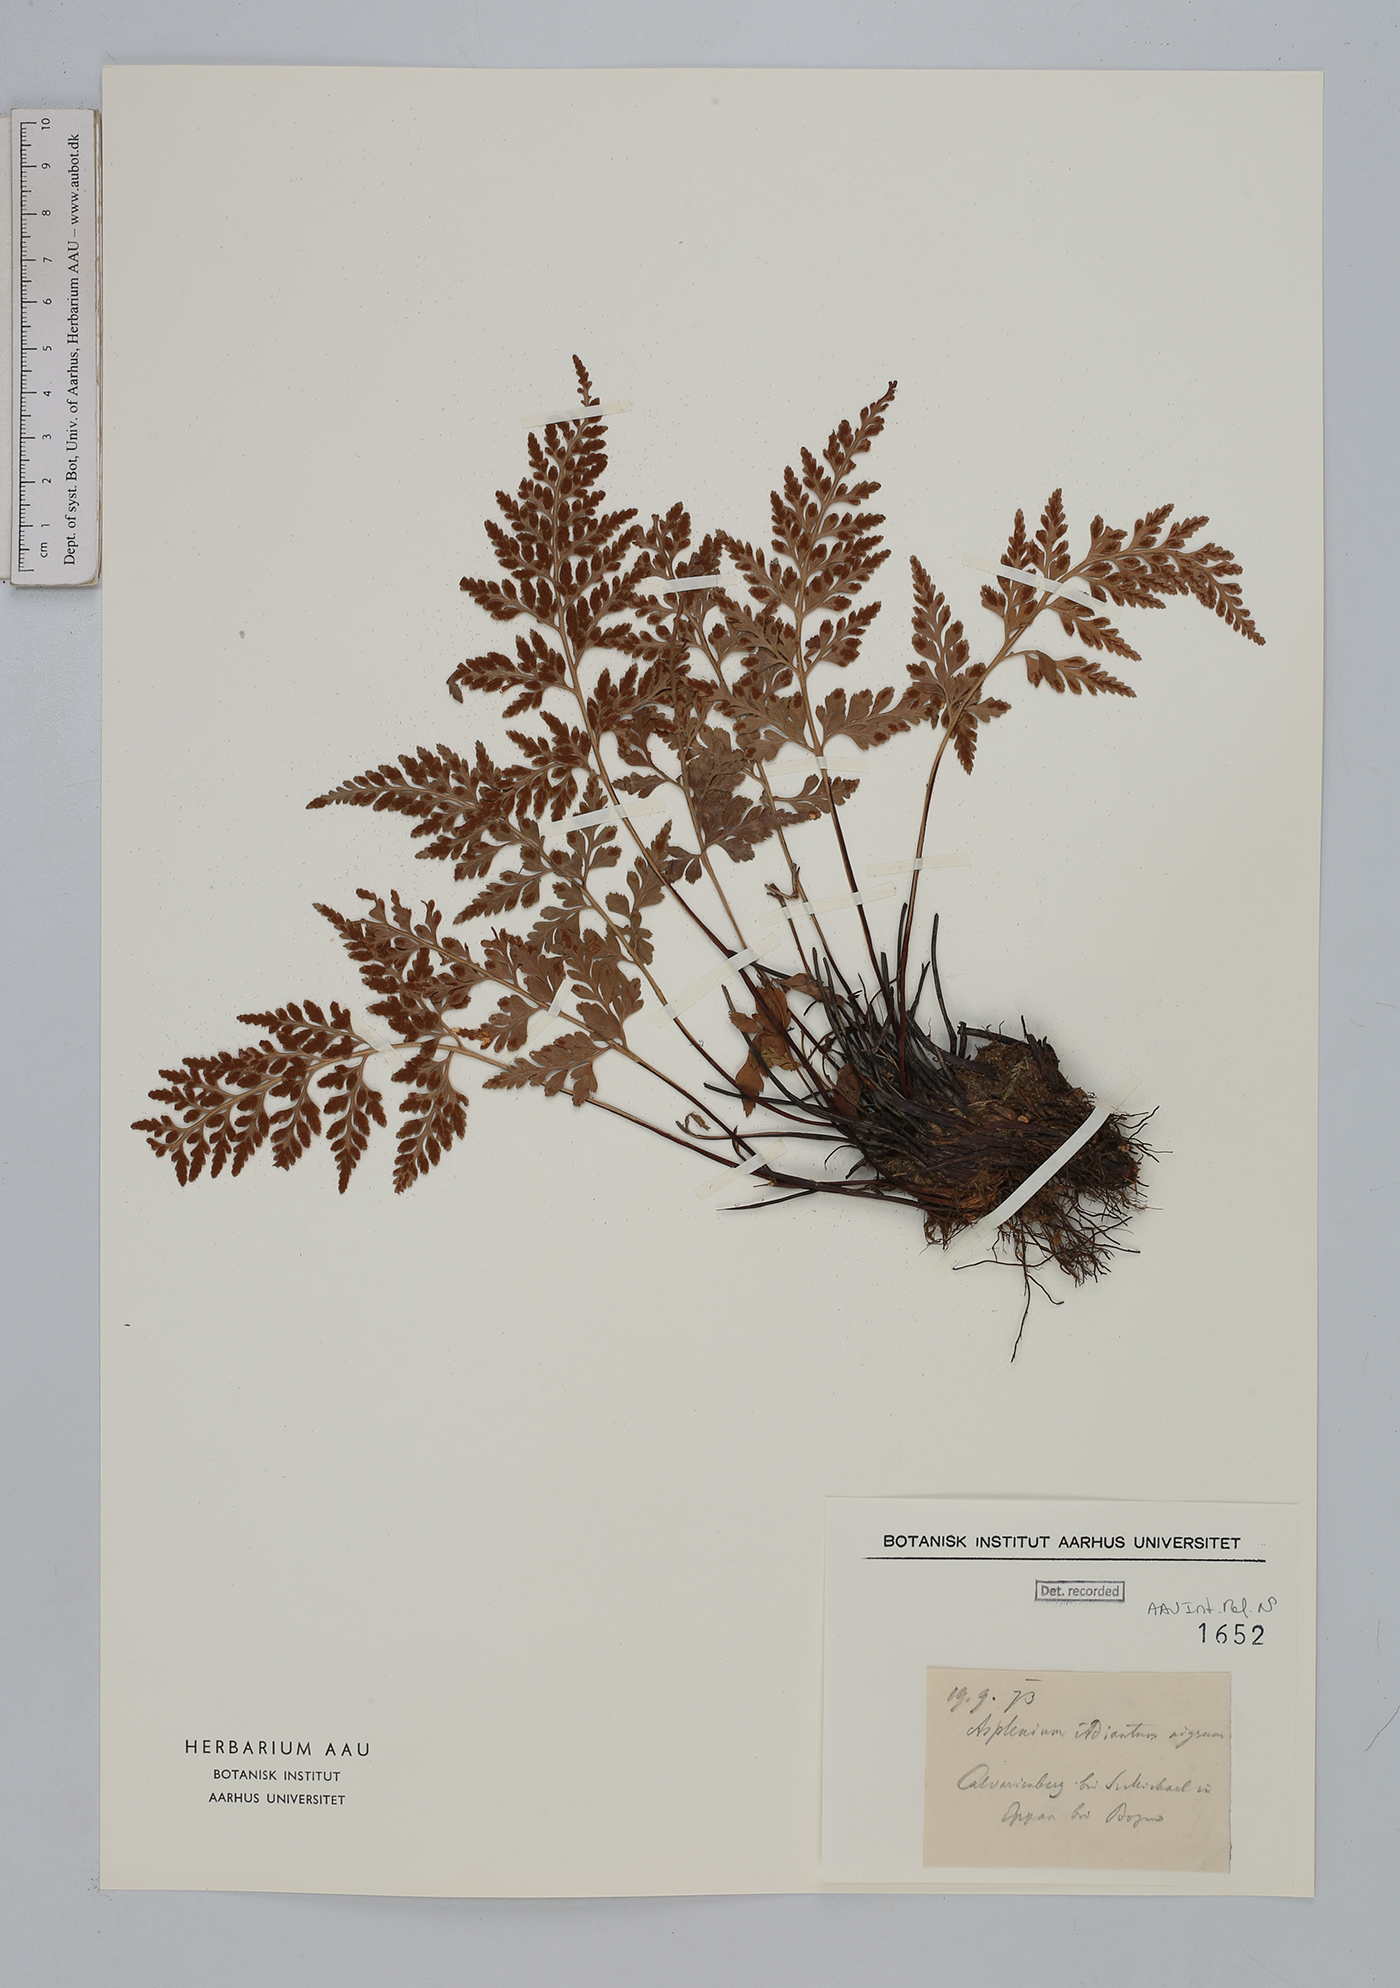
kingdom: Plantae
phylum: Tracheophyta
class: Polypodiopsida
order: Polypodiales
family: Aspleniaceae
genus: Asplenium
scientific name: Asplenium adiantum-nigrum
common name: Black spleenwort
